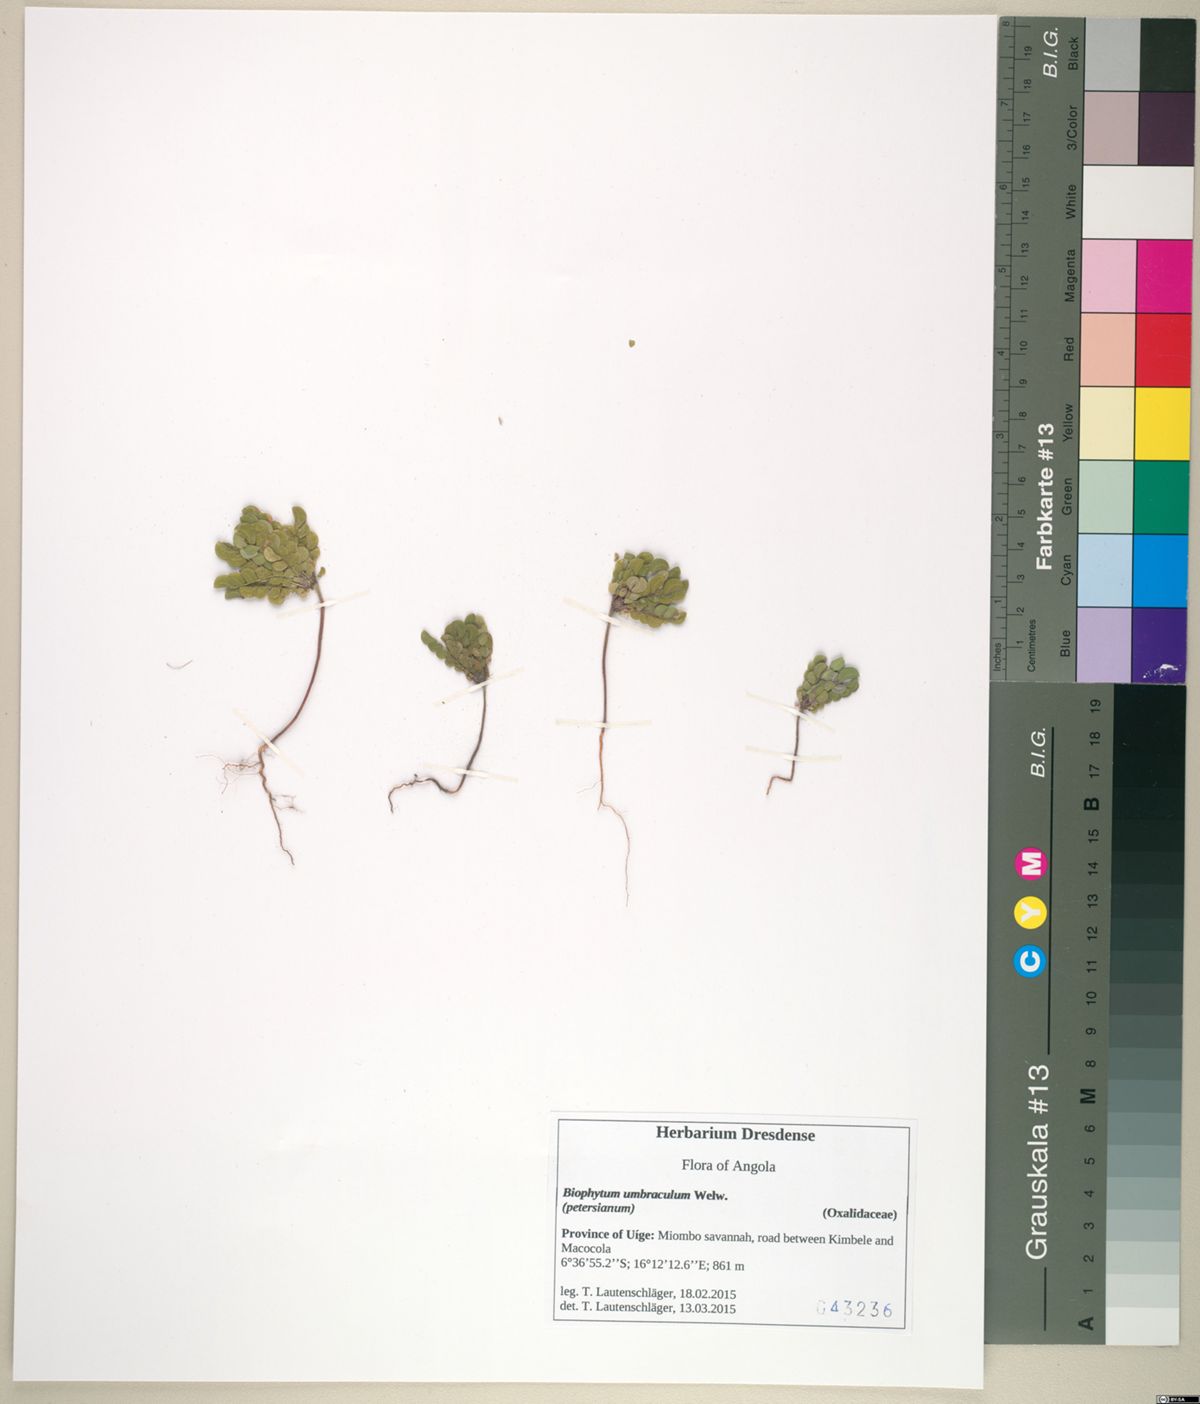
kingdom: Plantae
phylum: Tracheophyta
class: Magnoliopsida
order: Oxalidales
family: Oxalidaceae
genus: Biophytum
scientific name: Biophytum umbraculum
